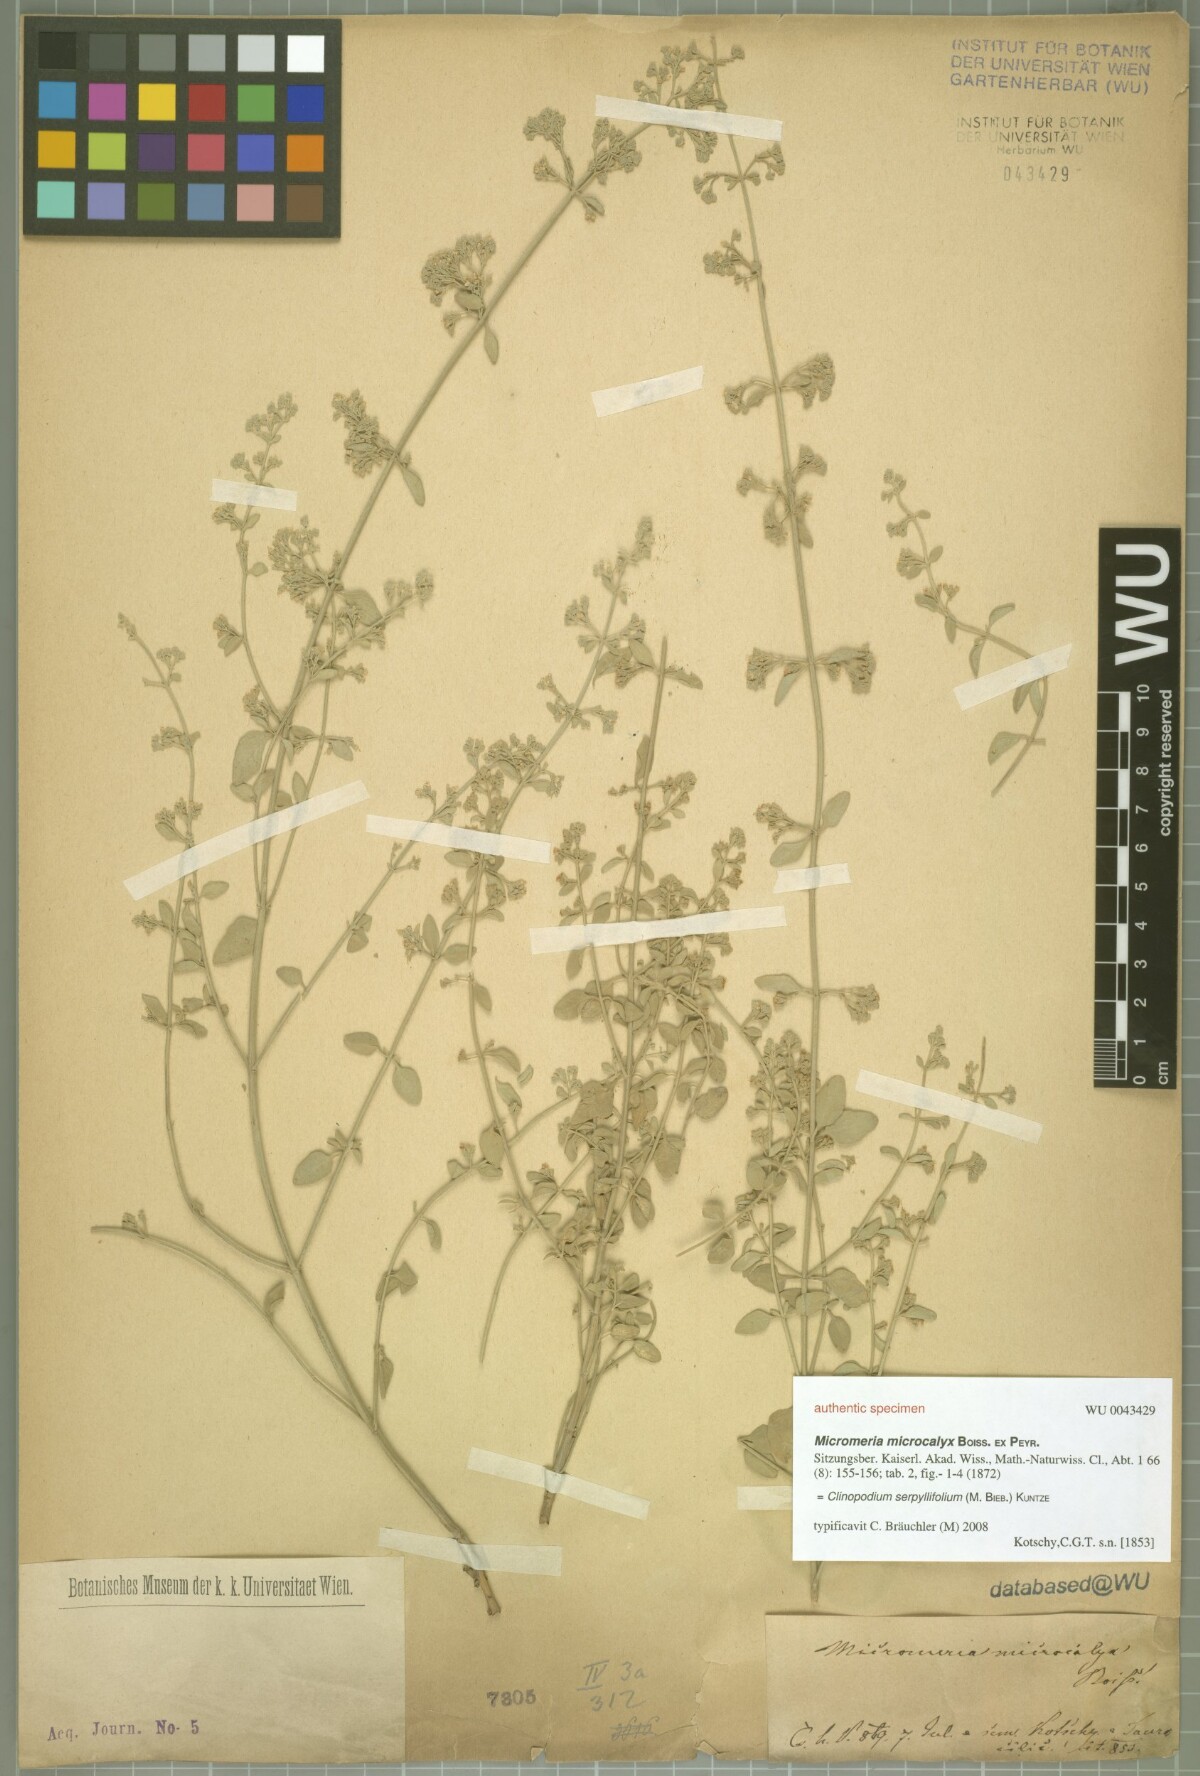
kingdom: Plantae
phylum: Tracheophyta
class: Magnoliopsida
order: Lamiales
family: Lamiaceae
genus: Clinopodium
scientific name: Clinopodium serpyllifolium
